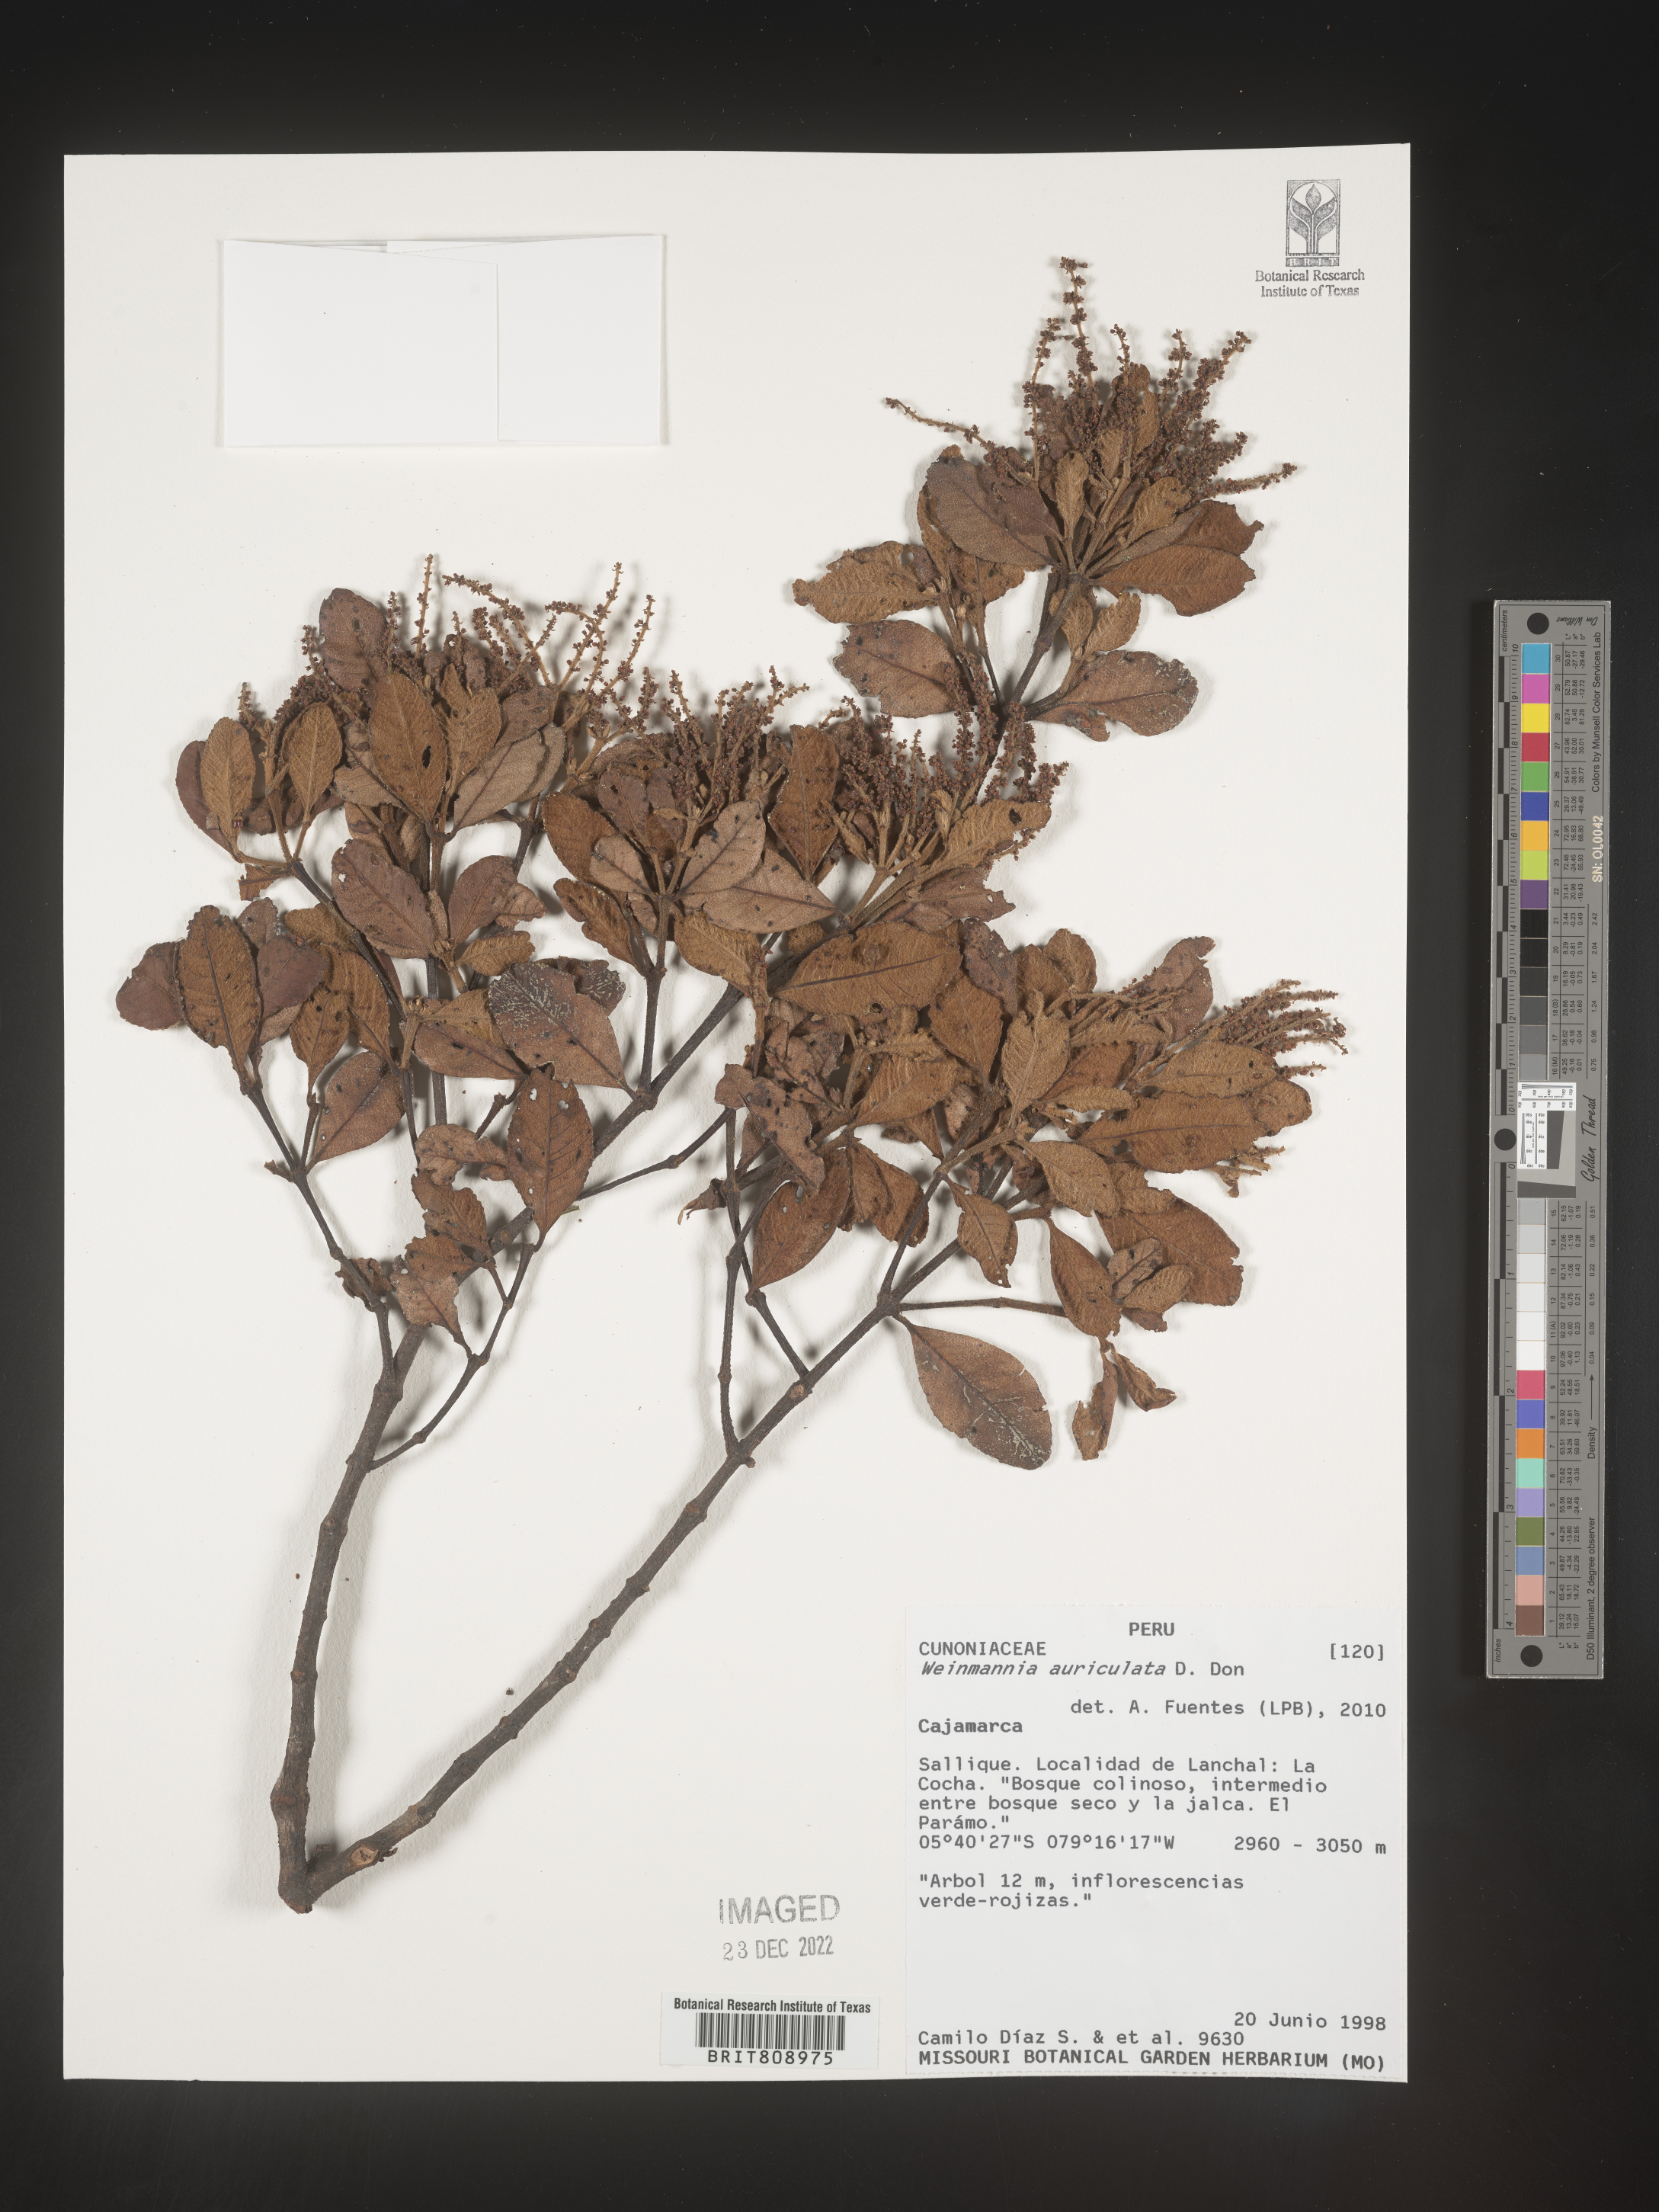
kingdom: Plantae
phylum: Tracheophyta
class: Magnoliopsida
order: Oxalidales
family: Cunoniaceae
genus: Weinmannia
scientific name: Weinmannia
